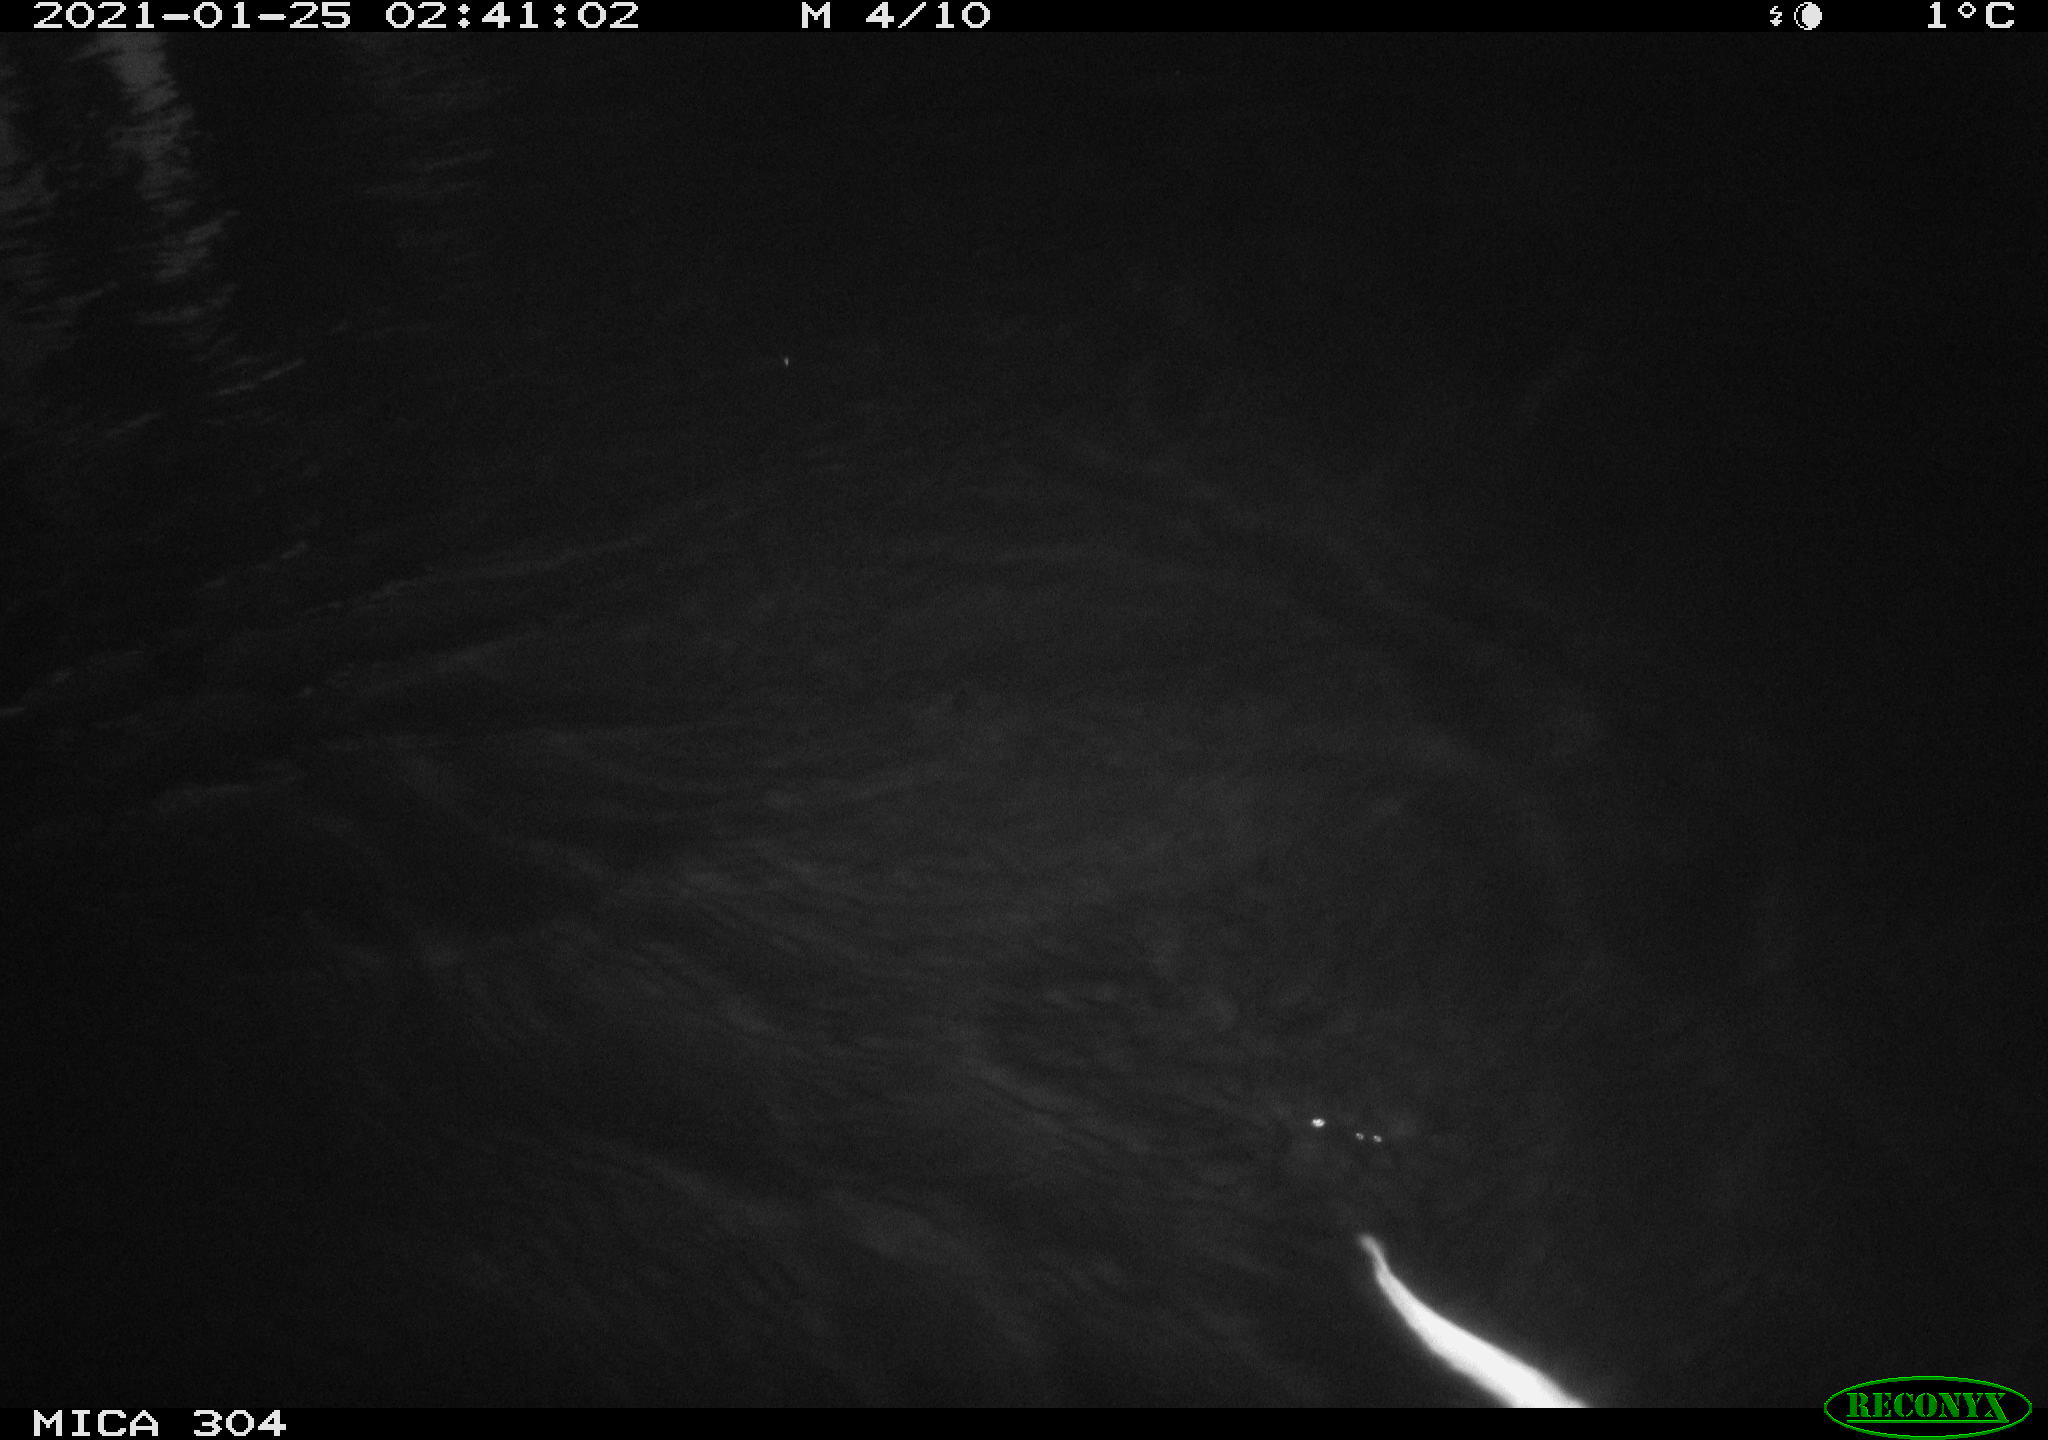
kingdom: Animalia
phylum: Chordata
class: Mammalia
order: Rodentia
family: Cricetidae
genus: Ondatra
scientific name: Ondatra zibethicus
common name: Muskrat
